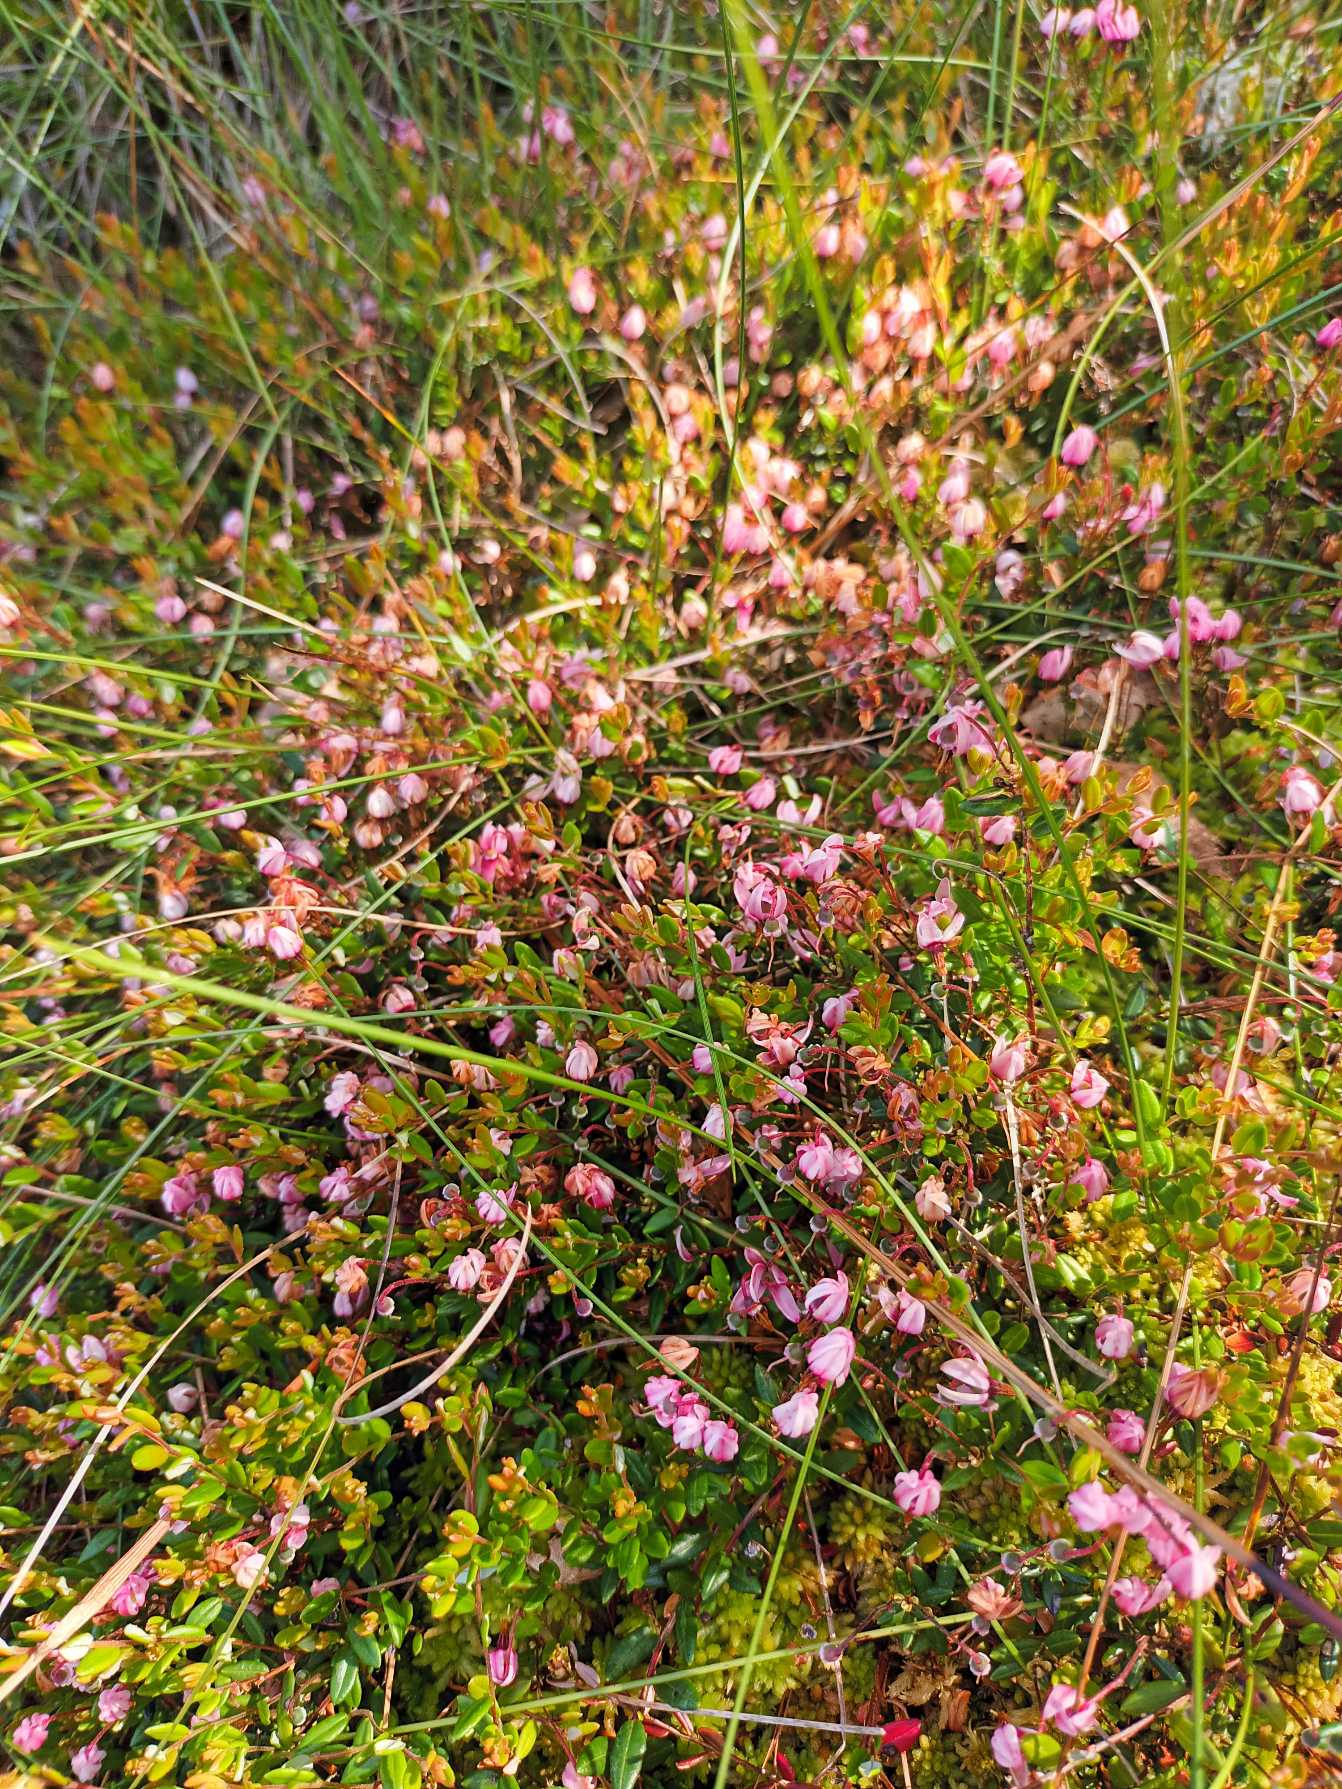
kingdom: Plantae
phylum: Tracheophyta
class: Magnoliopsida
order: Ericales
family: Ericaceae
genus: Vaccinium
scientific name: Vaccinium oxycoccos
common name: Tranebær
